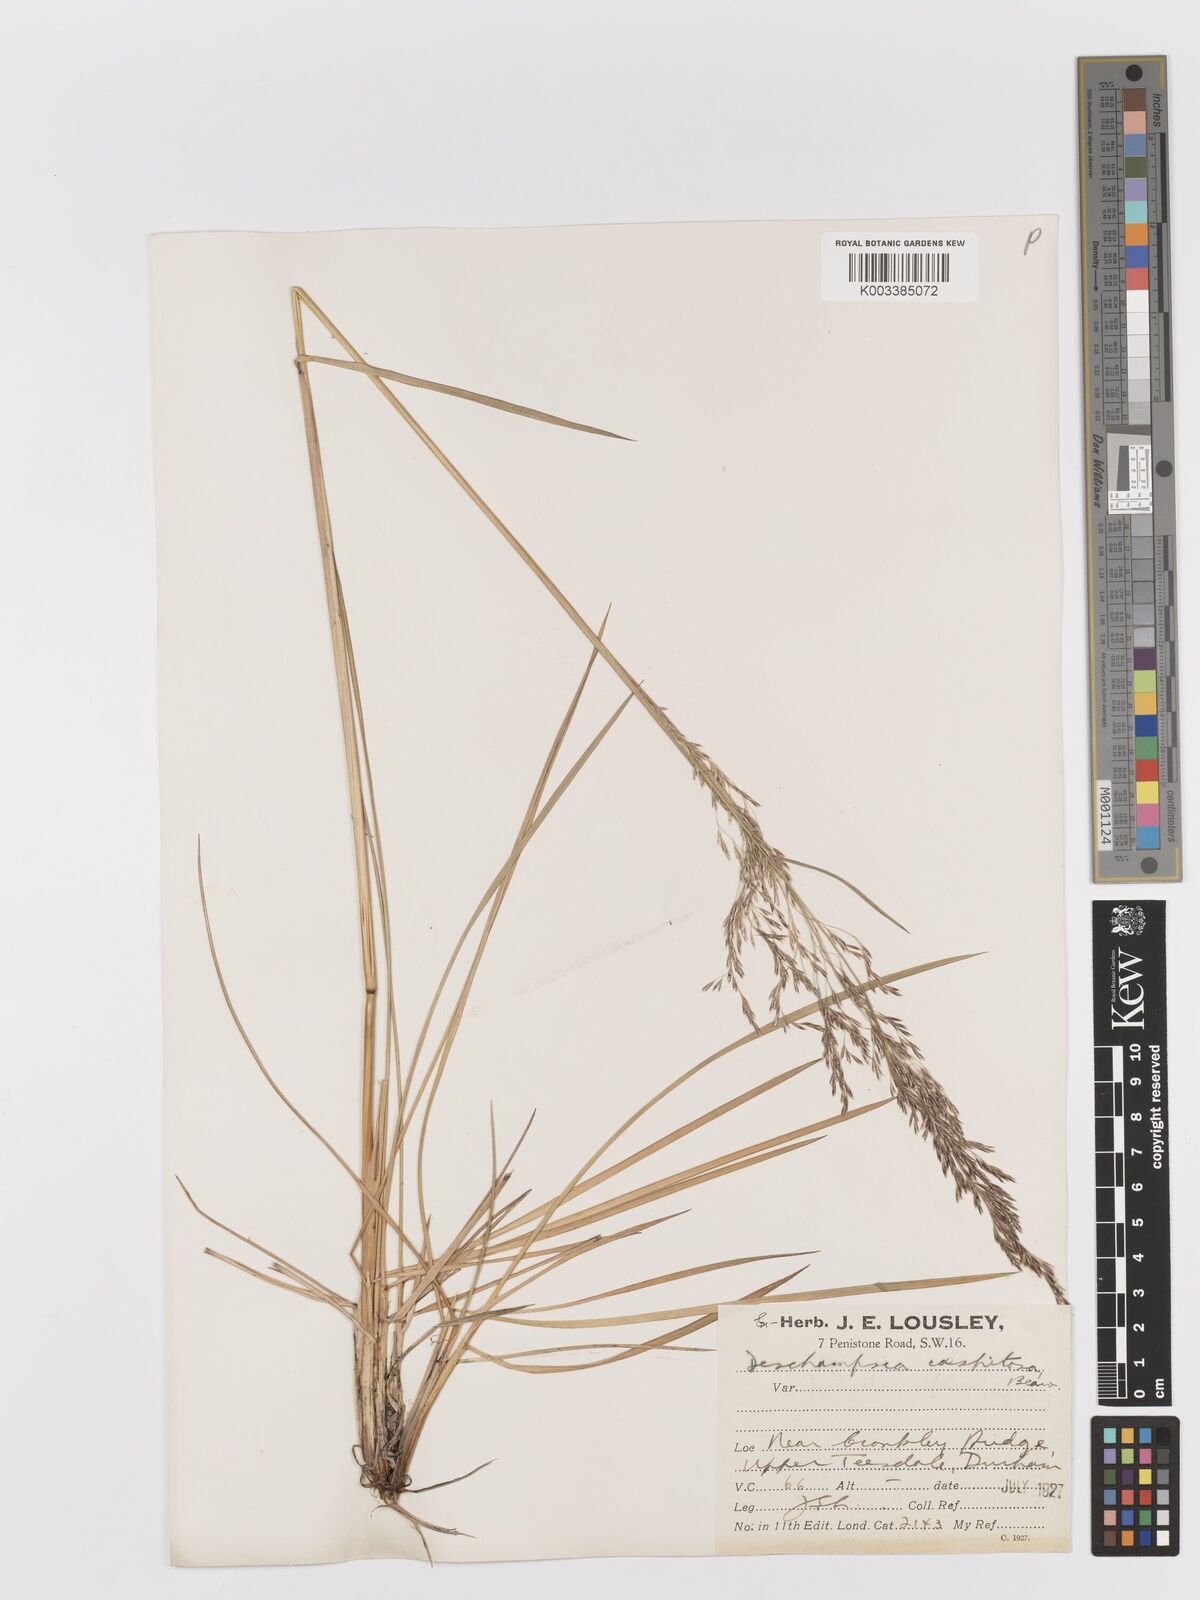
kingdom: Plantae
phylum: Tracheophyta
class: Liliopsida
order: Poales
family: Poaceae
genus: Deschampsia
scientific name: Deschampsia cespitosa
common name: Tufted hair-grass
